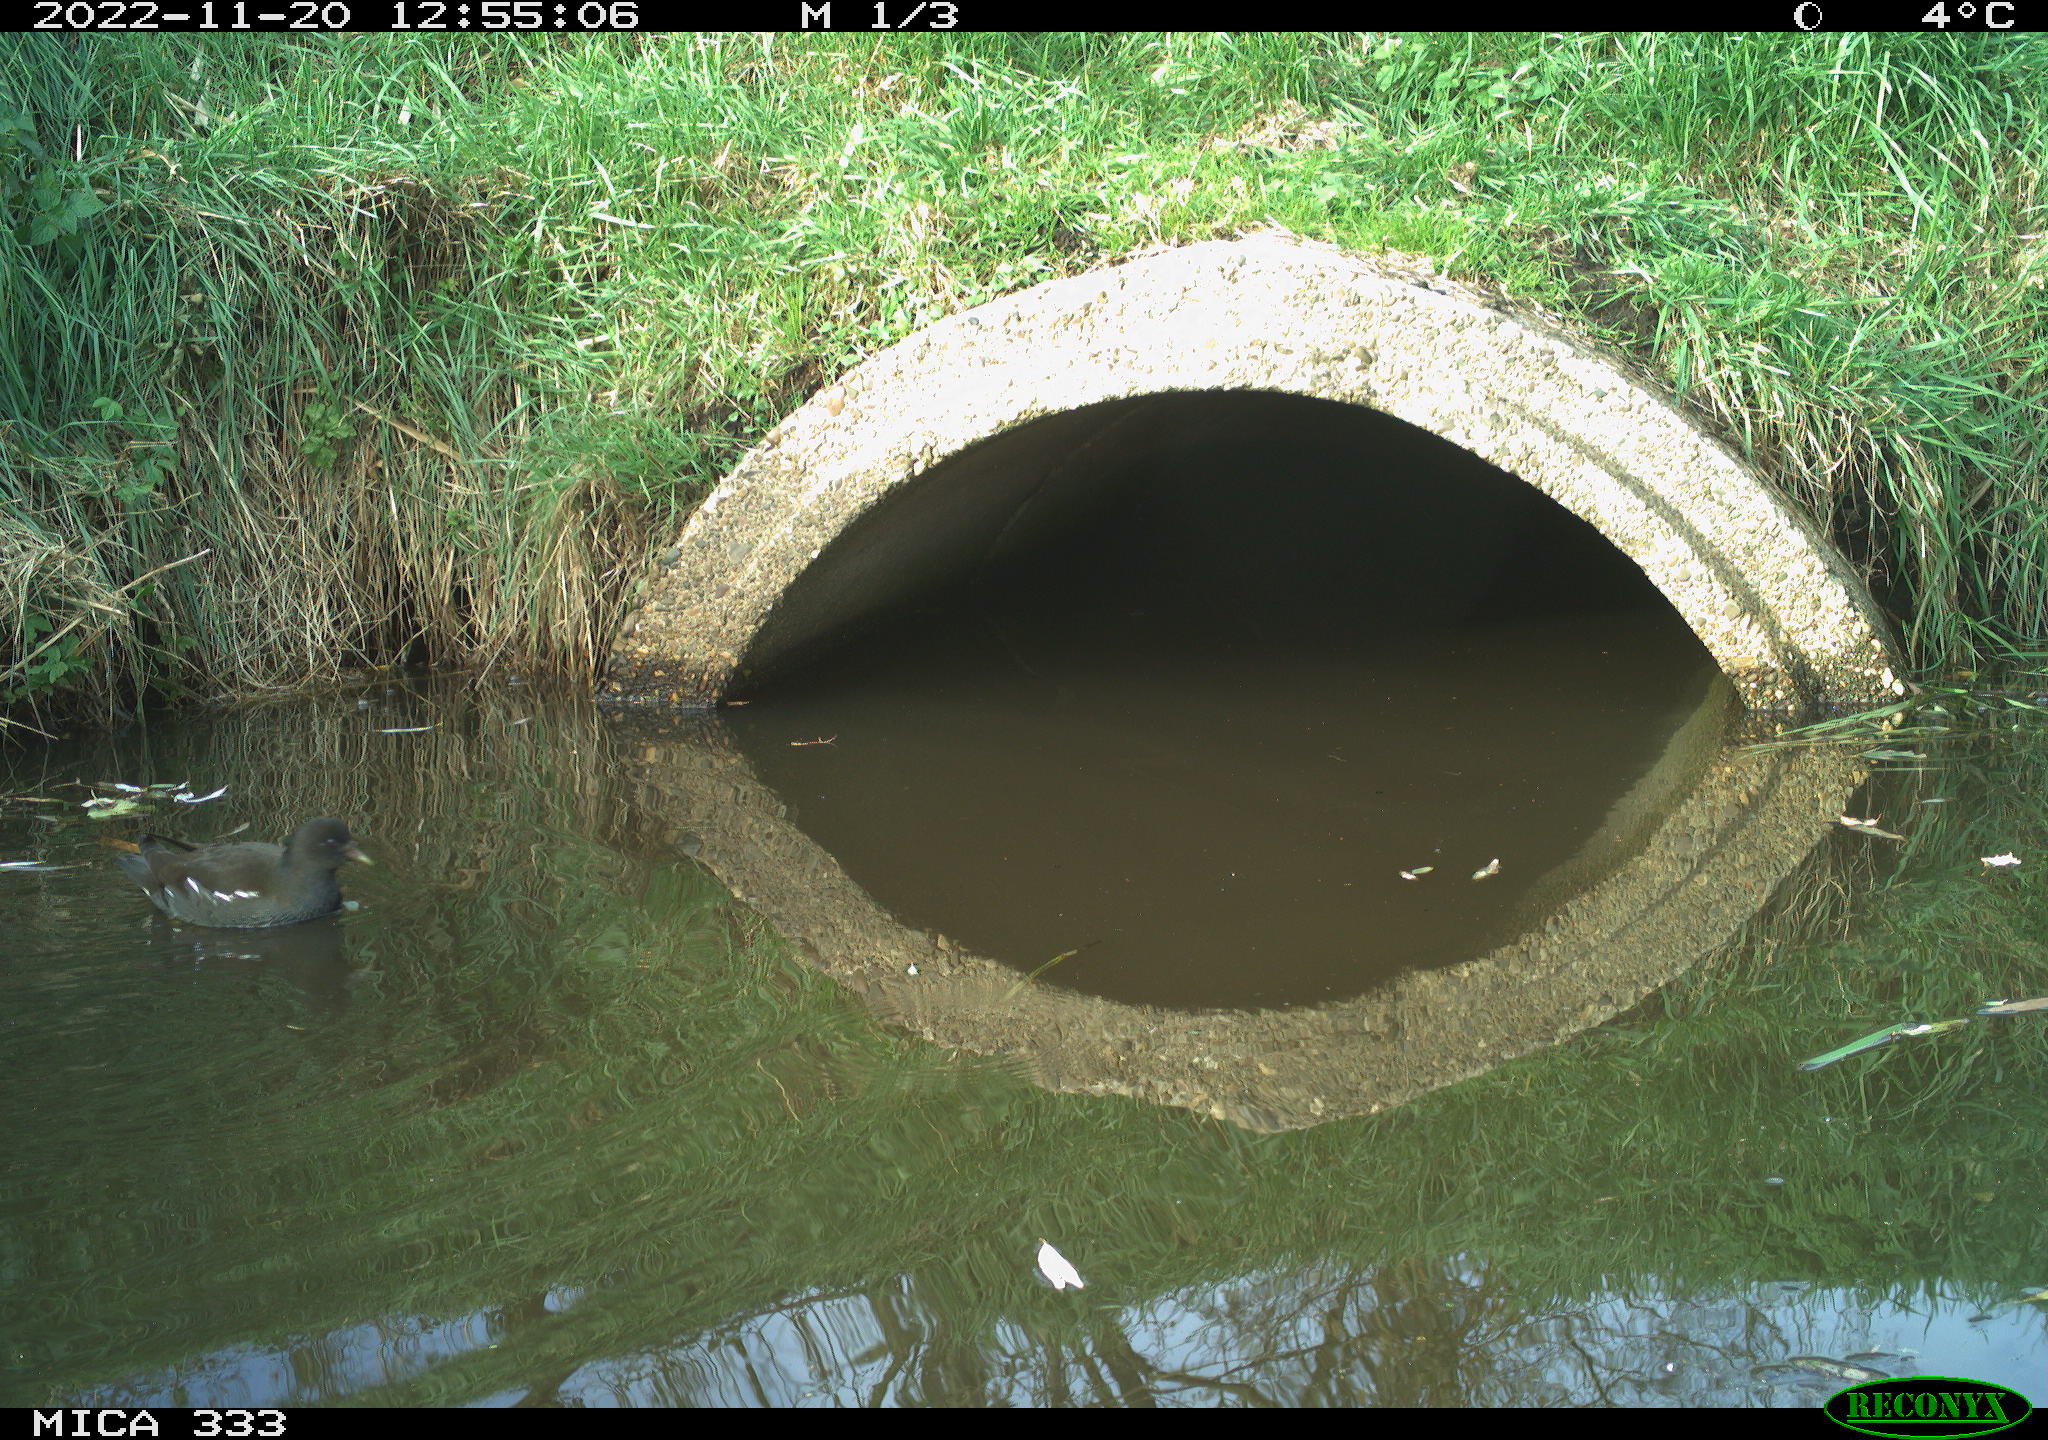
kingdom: Animalia
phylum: Chordata
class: Aves
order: Gruiformes
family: Rallidae
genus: Gallinula
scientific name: Gallinula chloropus
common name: Common moorhen
